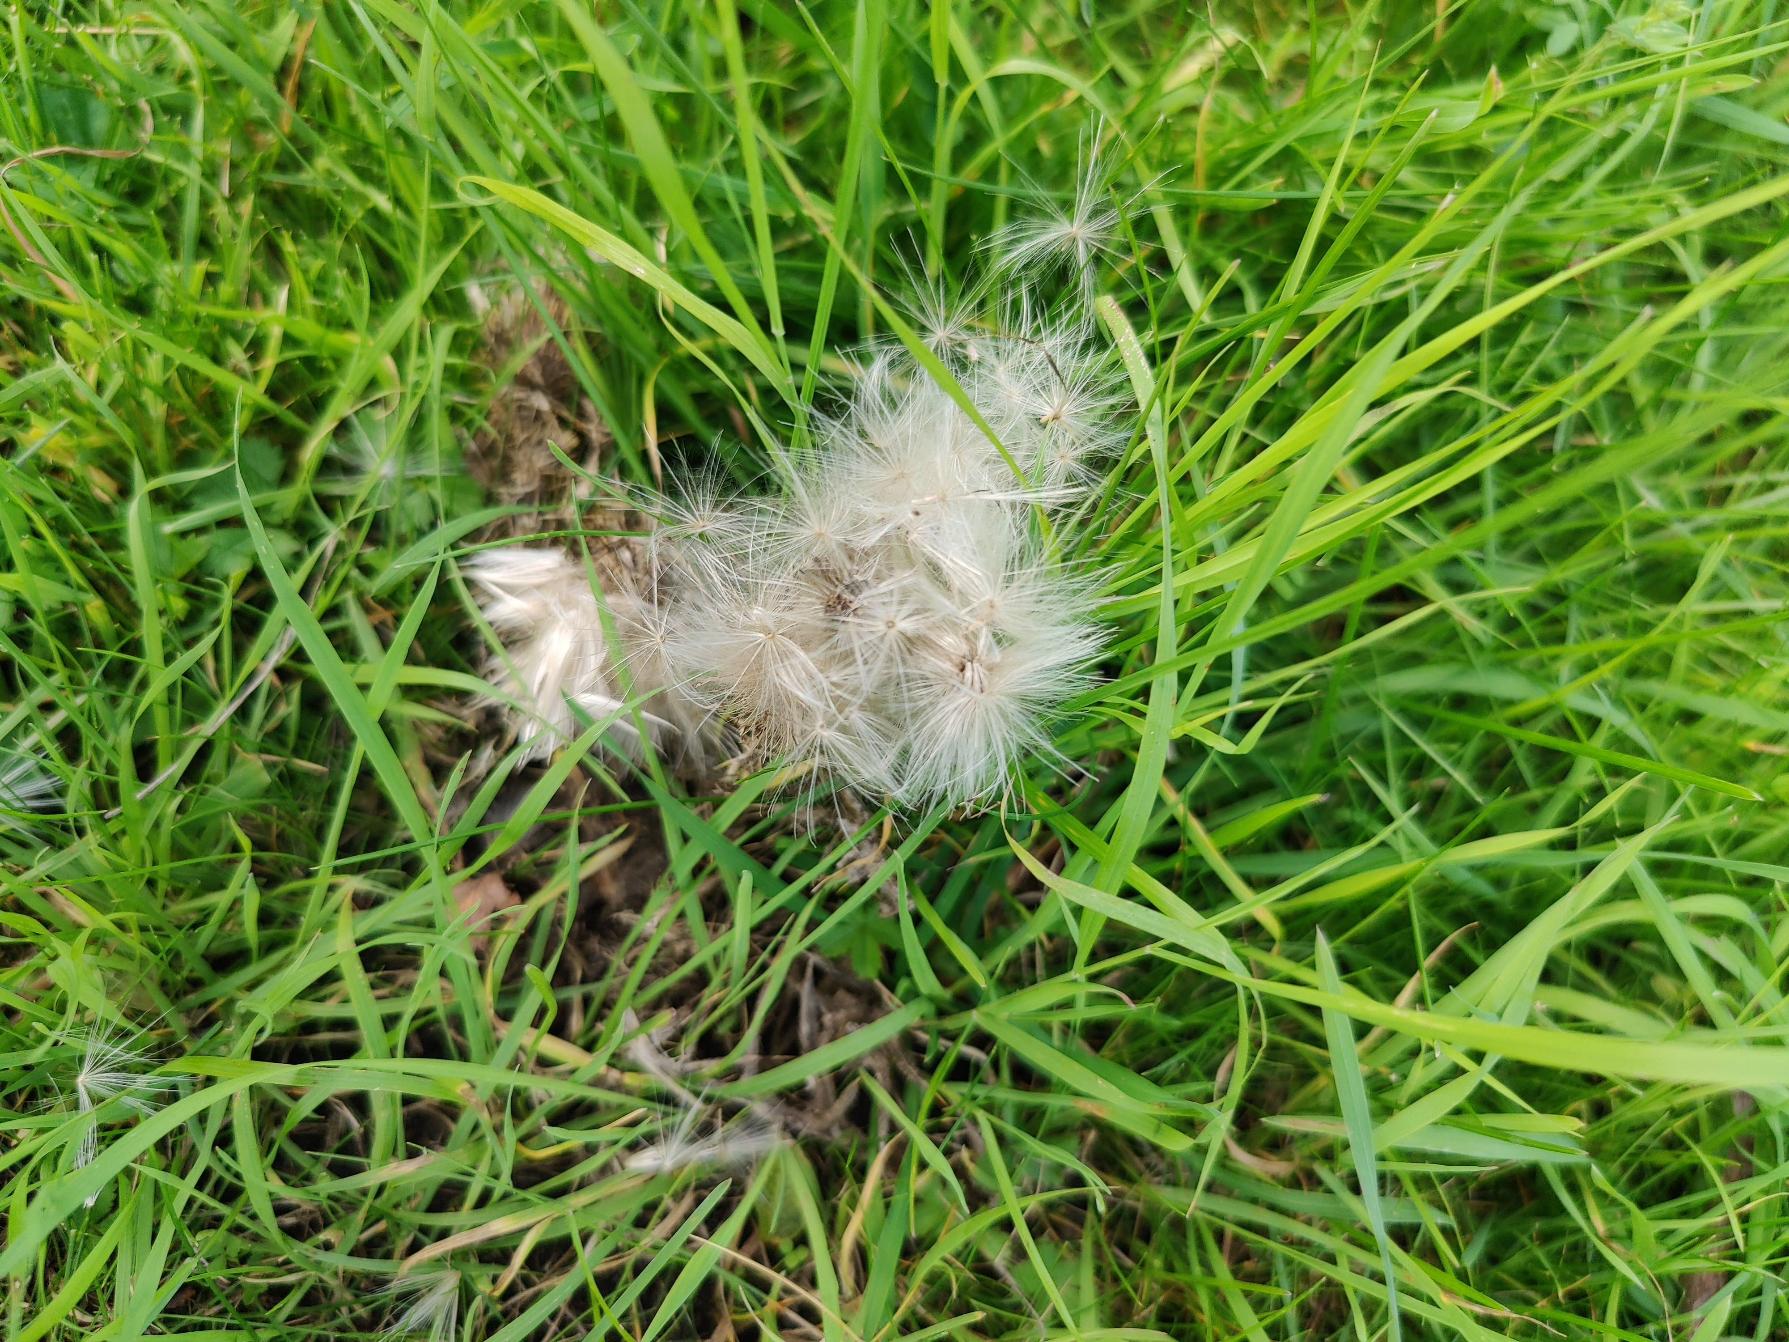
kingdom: Plantae
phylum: Tracheophyta
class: Magnoliopsida
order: Asterales
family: Asteraceae
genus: Tragopogon
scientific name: Tragopogon pratensis
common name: Gedeskæg
